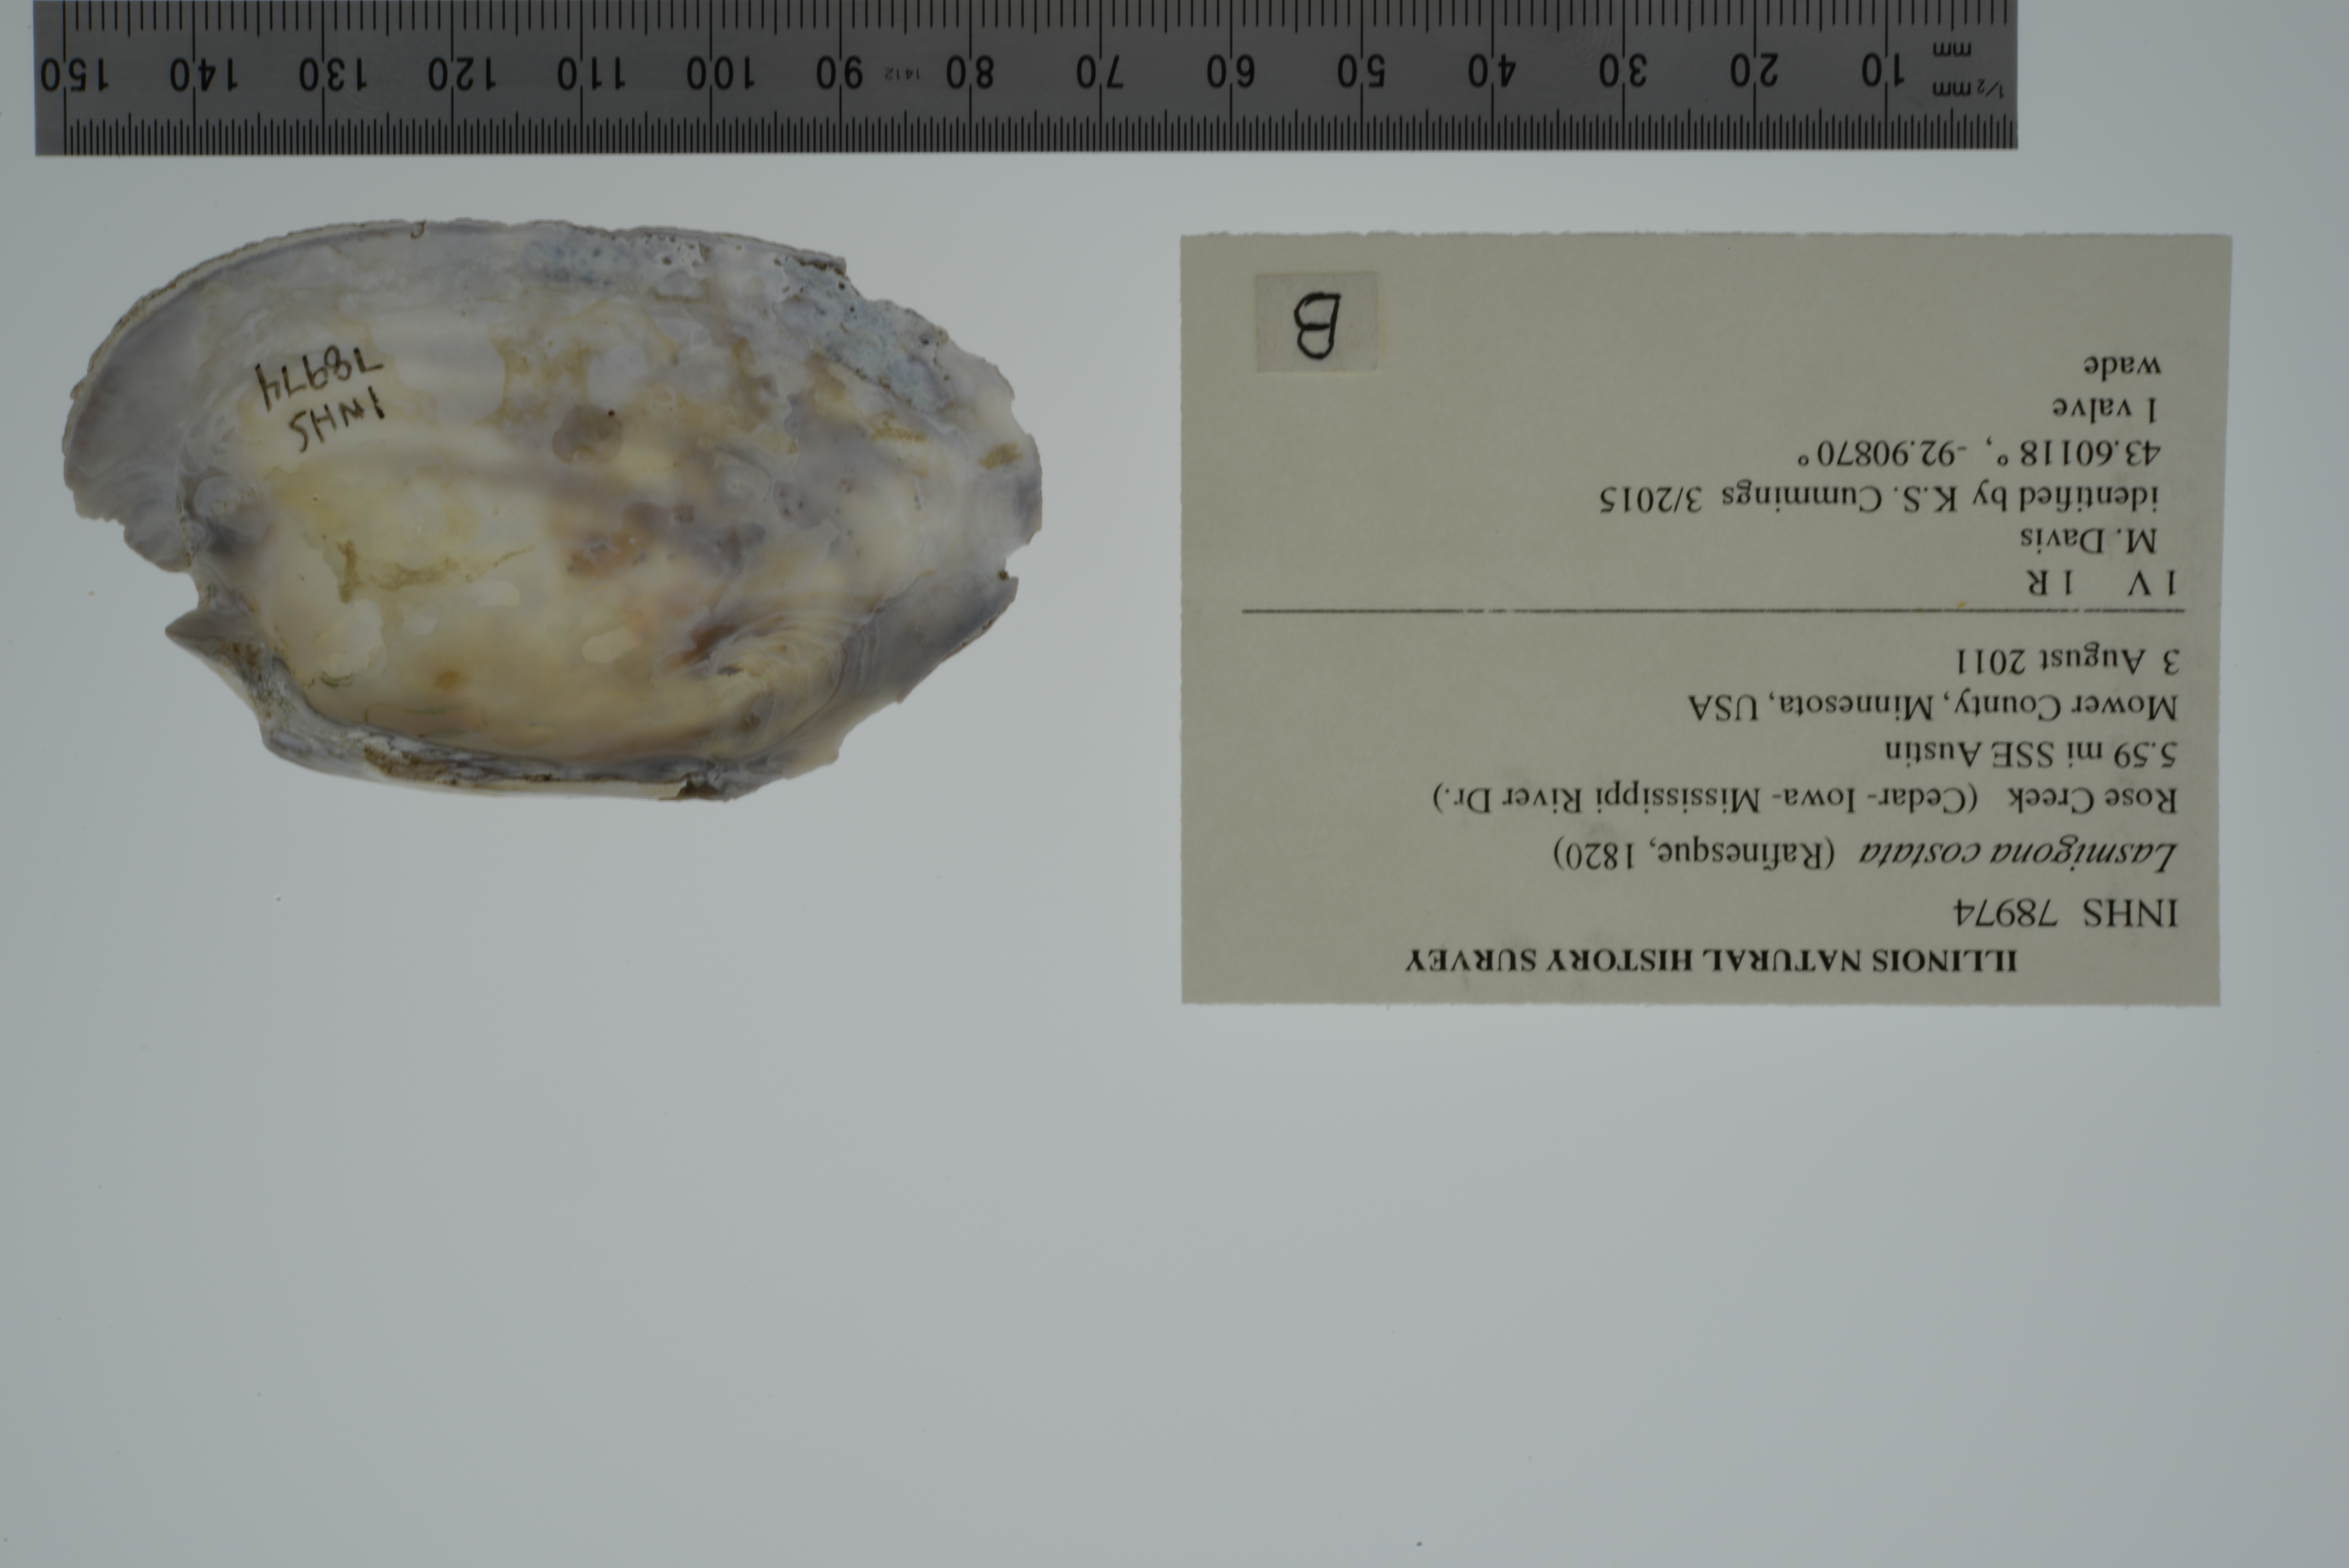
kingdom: Animalia
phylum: Mollusca
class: Bivalvia
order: Unionida
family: Unionidae
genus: Lasmigona
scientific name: Lasmigona costata
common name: Flutedshell
